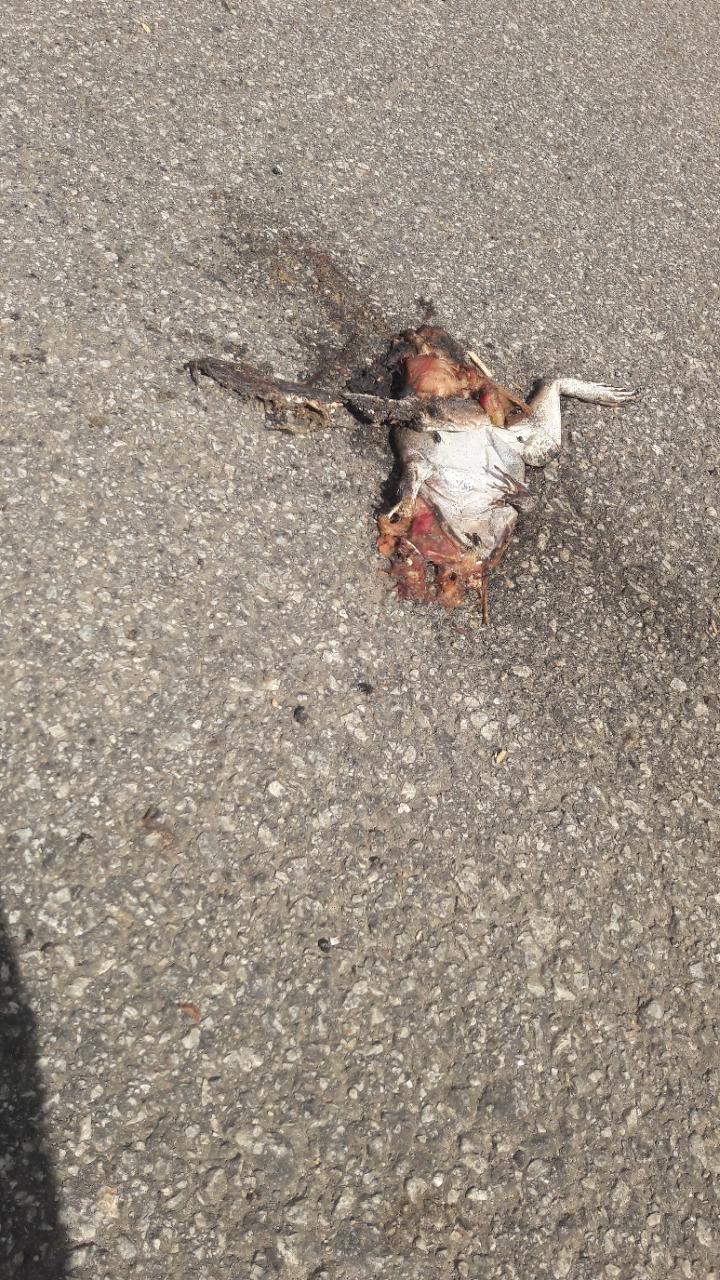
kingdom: Animalia
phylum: Chordata
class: Amphibia
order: Anura
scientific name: Anura
